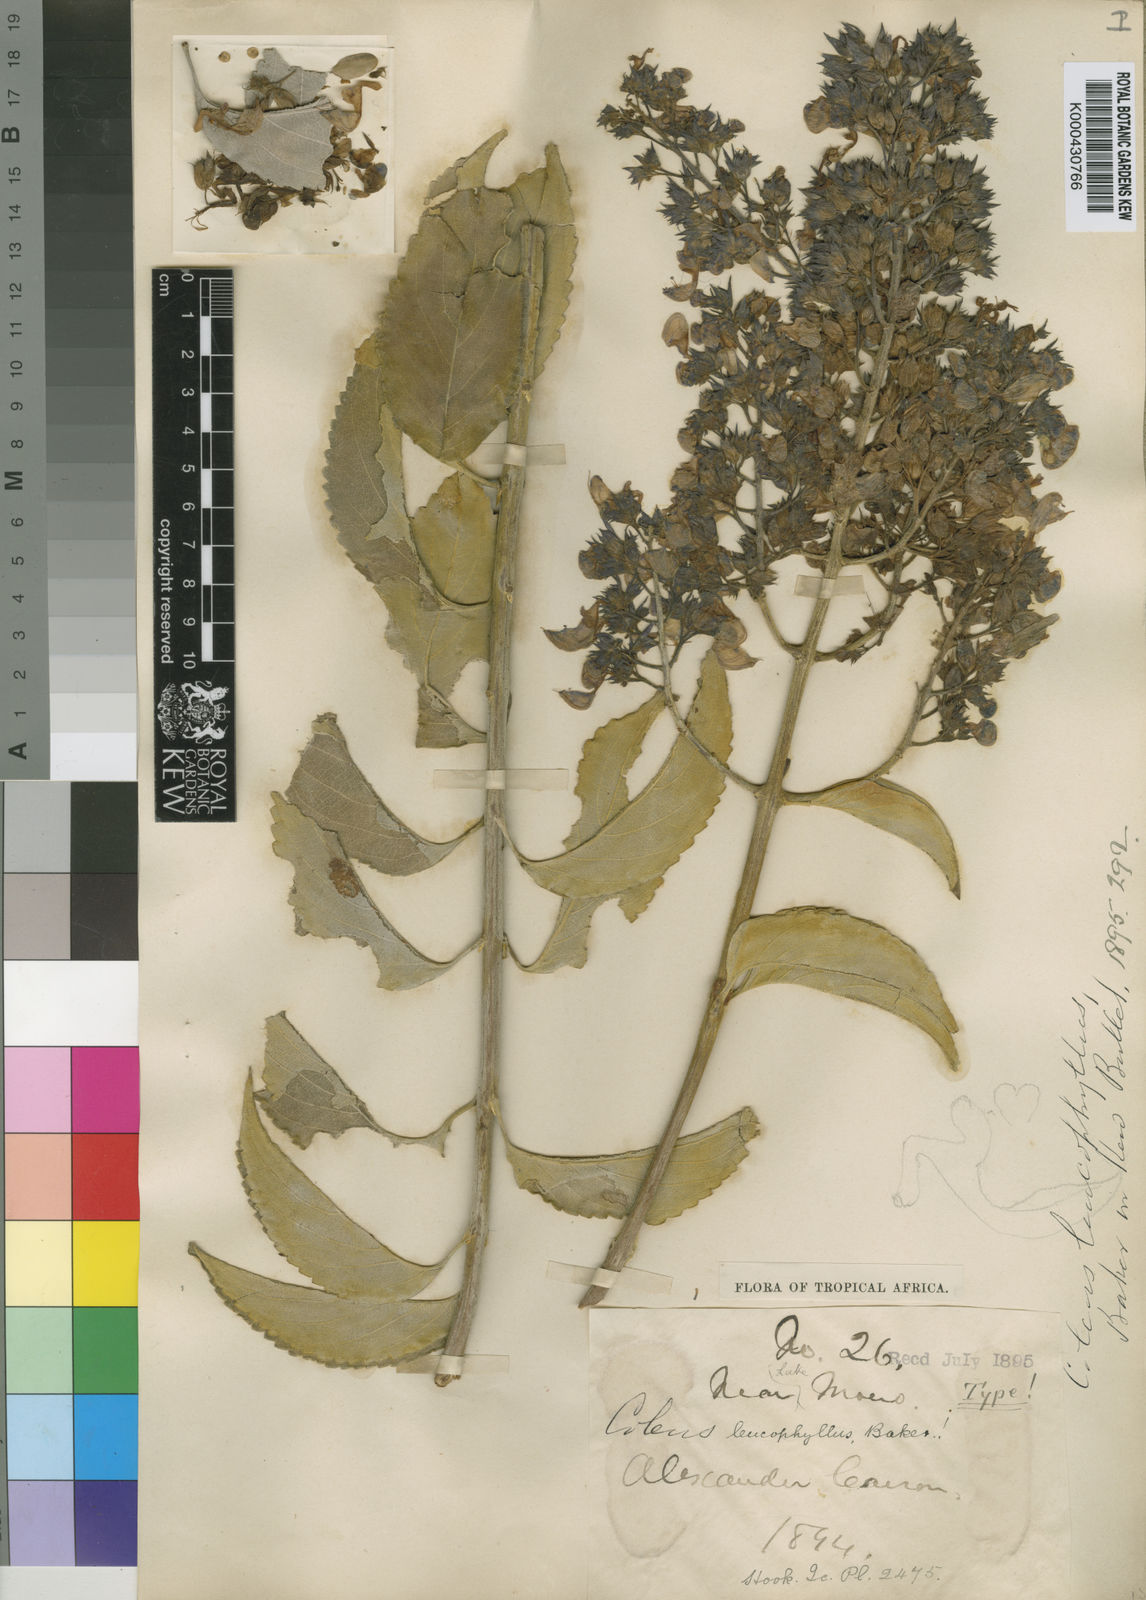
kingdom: Plantae
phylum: Tracheophyta
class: Magnoliopsida
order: Lamiales
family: Lamiaceae
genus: Coleus
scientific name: Coleus mirabilis
